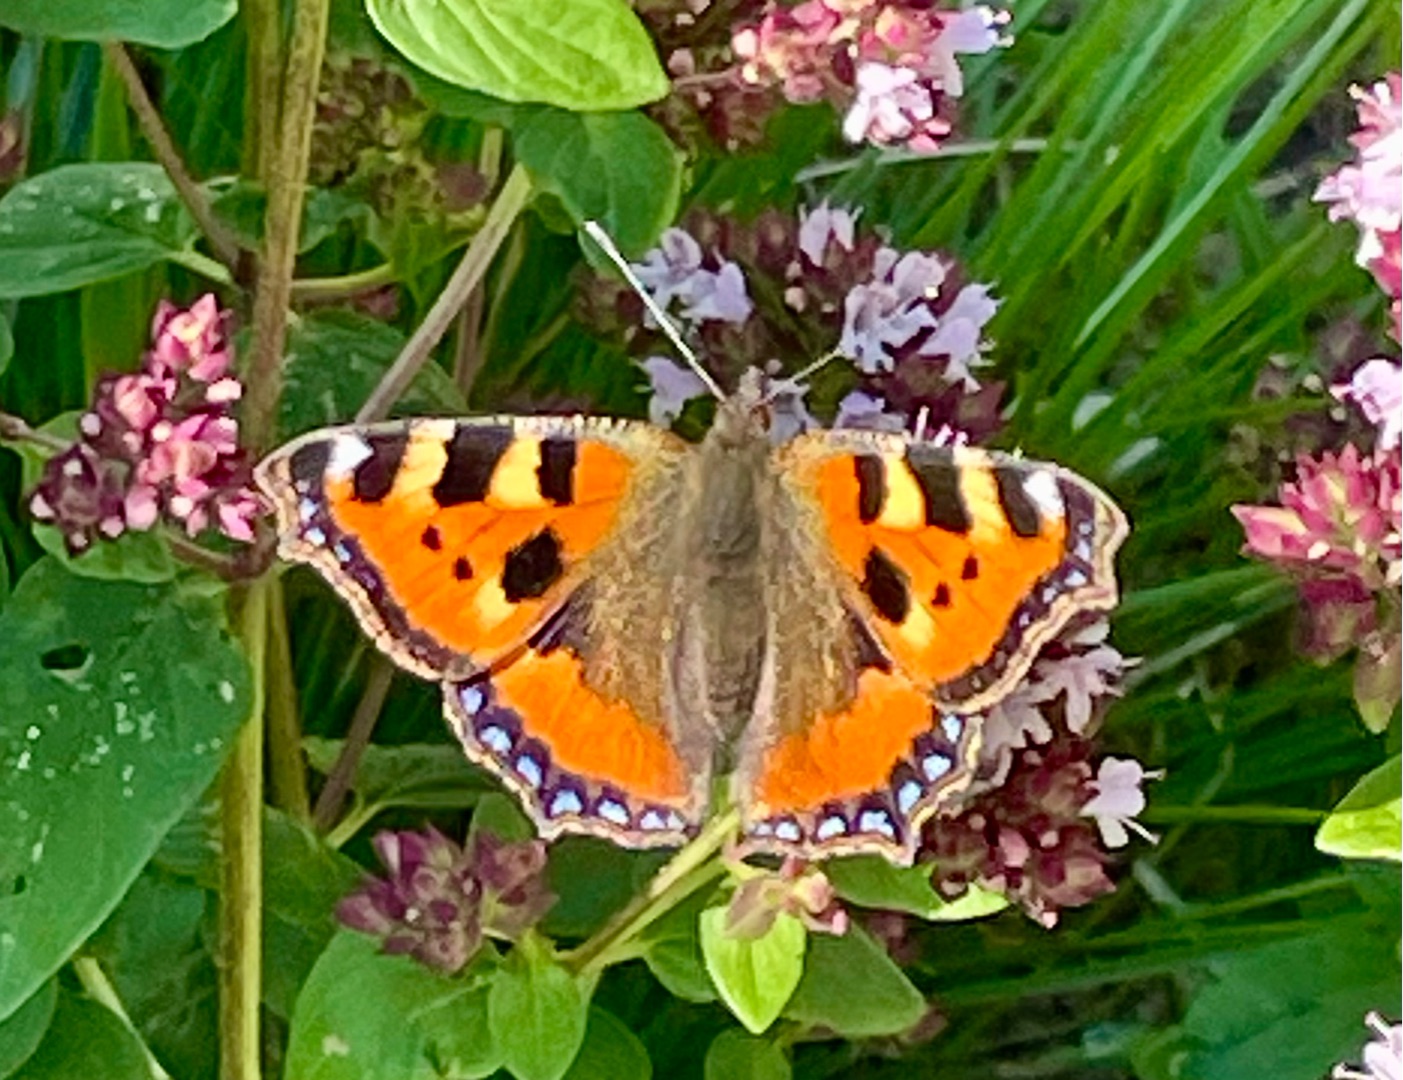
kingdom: Animalia
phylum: Arthropoda
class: Insecta
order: Lepidoptera
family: Nymphalidae
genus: Aglais
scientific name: Aglais urticae
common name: Nældens takvinge
